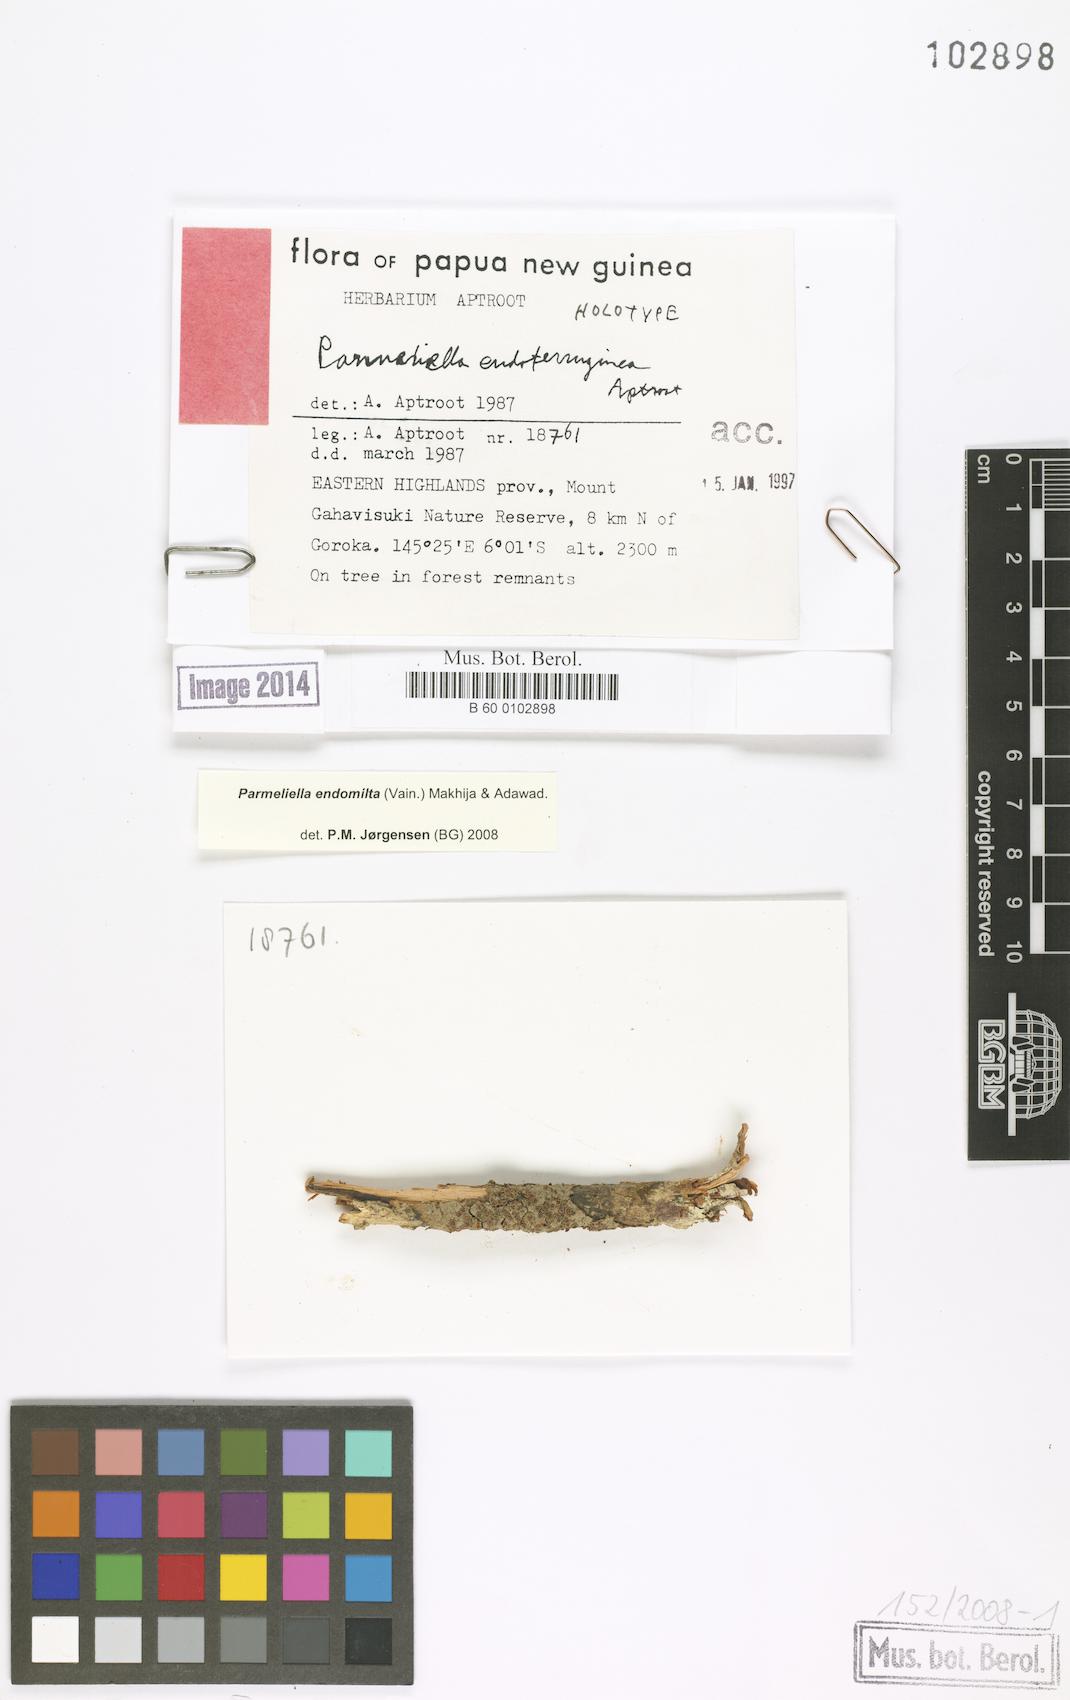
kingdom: Fungi
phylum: Ascomycota
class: Lecanoromycetes
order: Peltigerales
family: Pannariaceae
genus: Parmeliella
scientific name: Parmeliella endoferruginea
